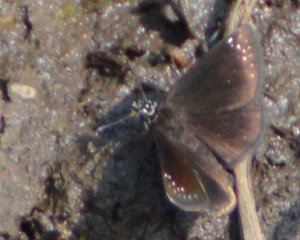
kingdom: Animalia
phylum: Arthropoda
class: Insecta
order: Lepidoptera
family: Hesperiidae
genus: Pholisora
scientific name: Pholisora catullus
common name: Common Sootywing
